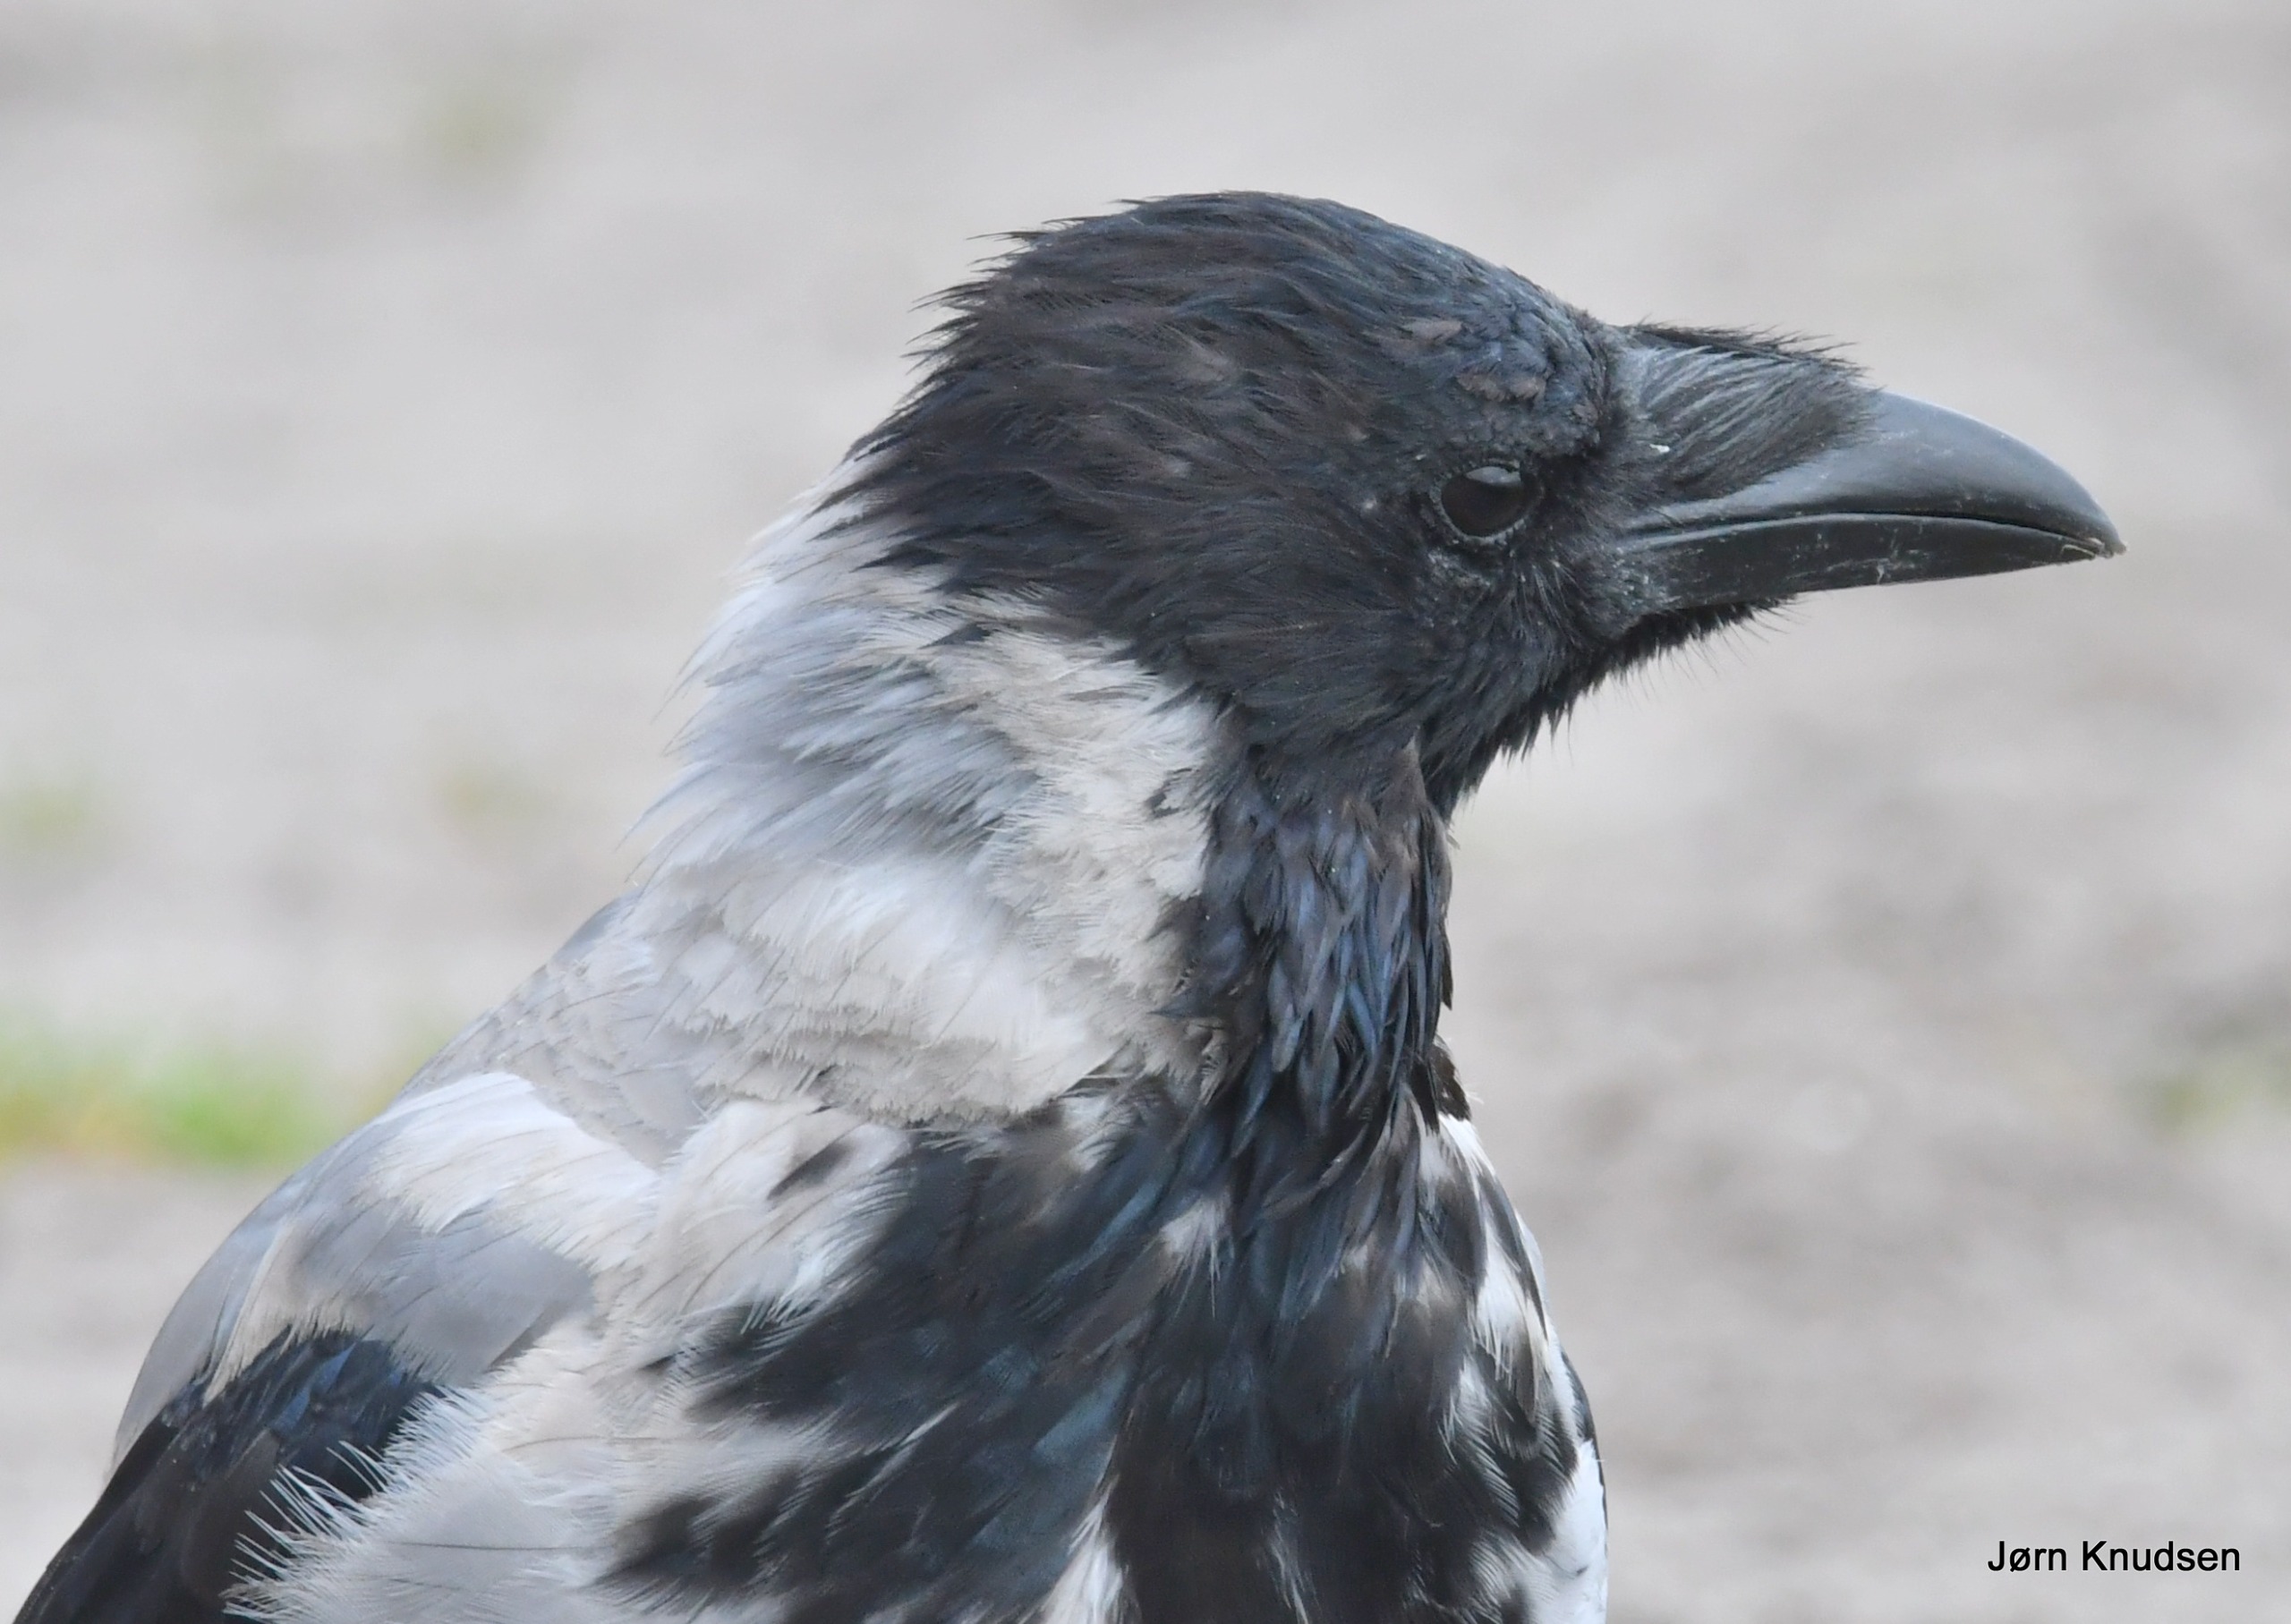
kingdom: Animalia
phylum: Chordata
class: Aves
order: Passeriformes
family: Corvidae
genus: Corvus
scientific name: Corvus cornix
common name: Gråkrage
